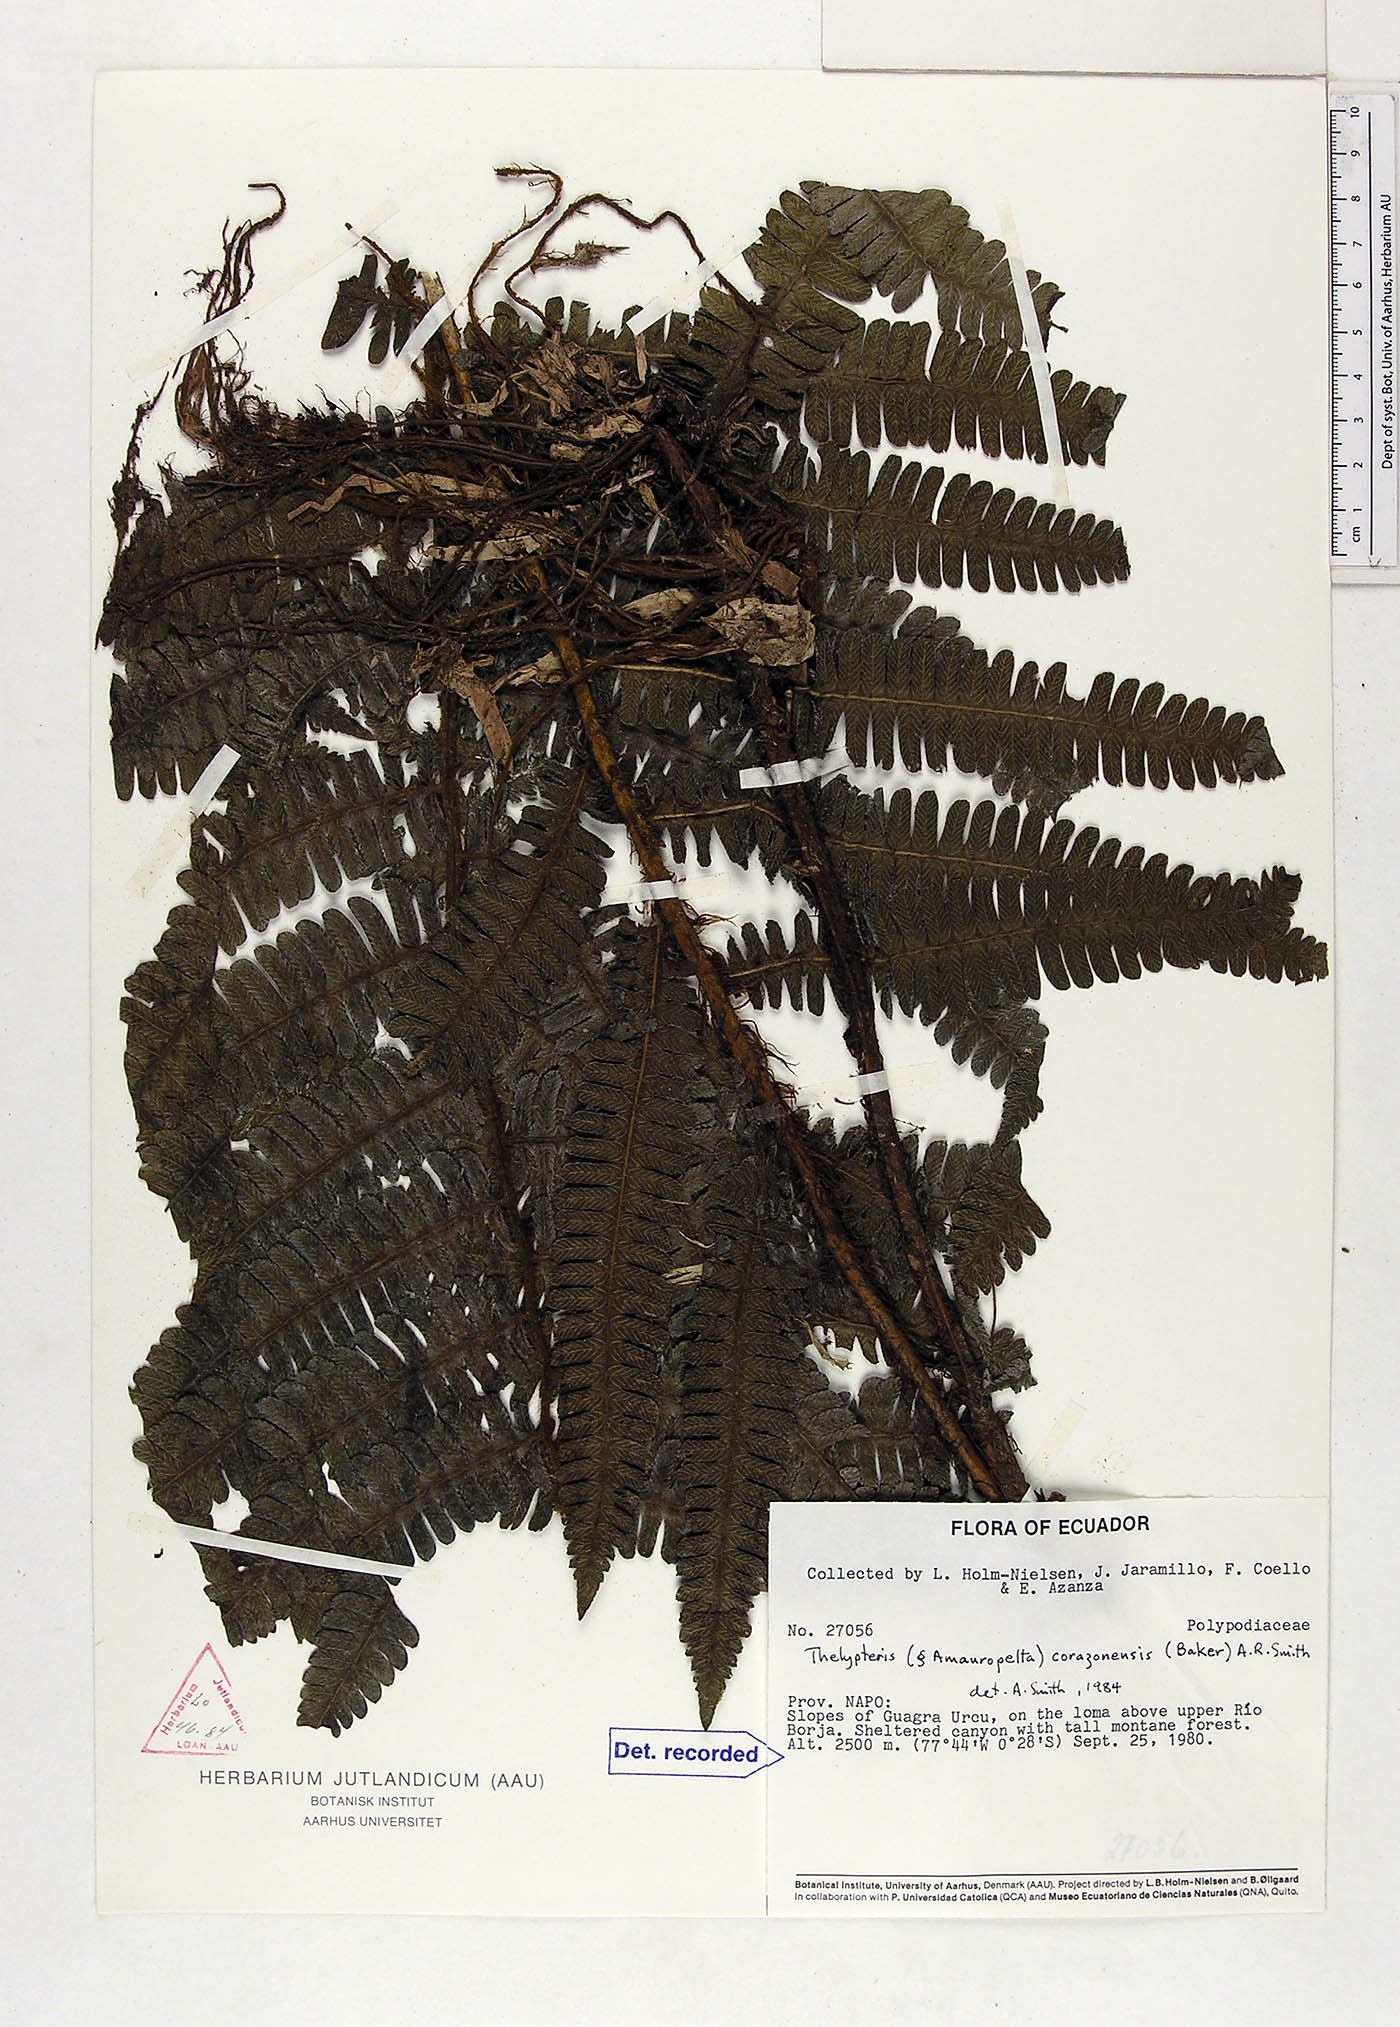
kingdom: Plantae
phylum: Tracheophyta
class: Polypodiopsida
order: Polypodiales
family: Thelypteridaceae
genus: Amauropelta
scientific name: Amauropelta corazonensis
